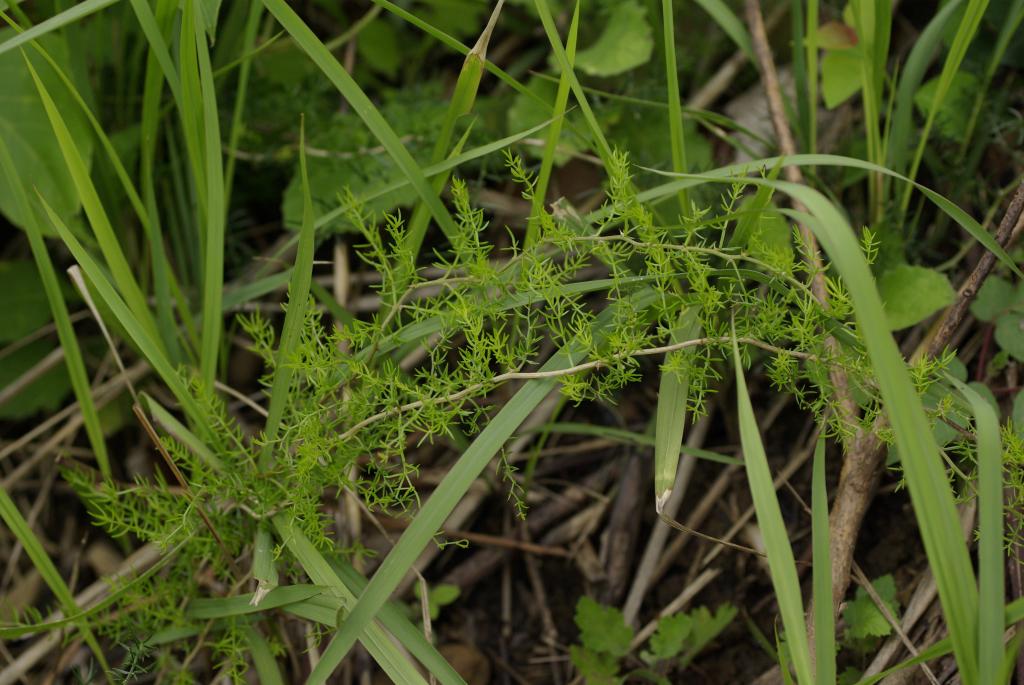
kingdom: Plantae
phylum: Tracheophyta
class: Liliopsida
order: Asparagales
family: Asparagaceae
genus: Asparagus
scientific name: Asparagus cochinchinensis
